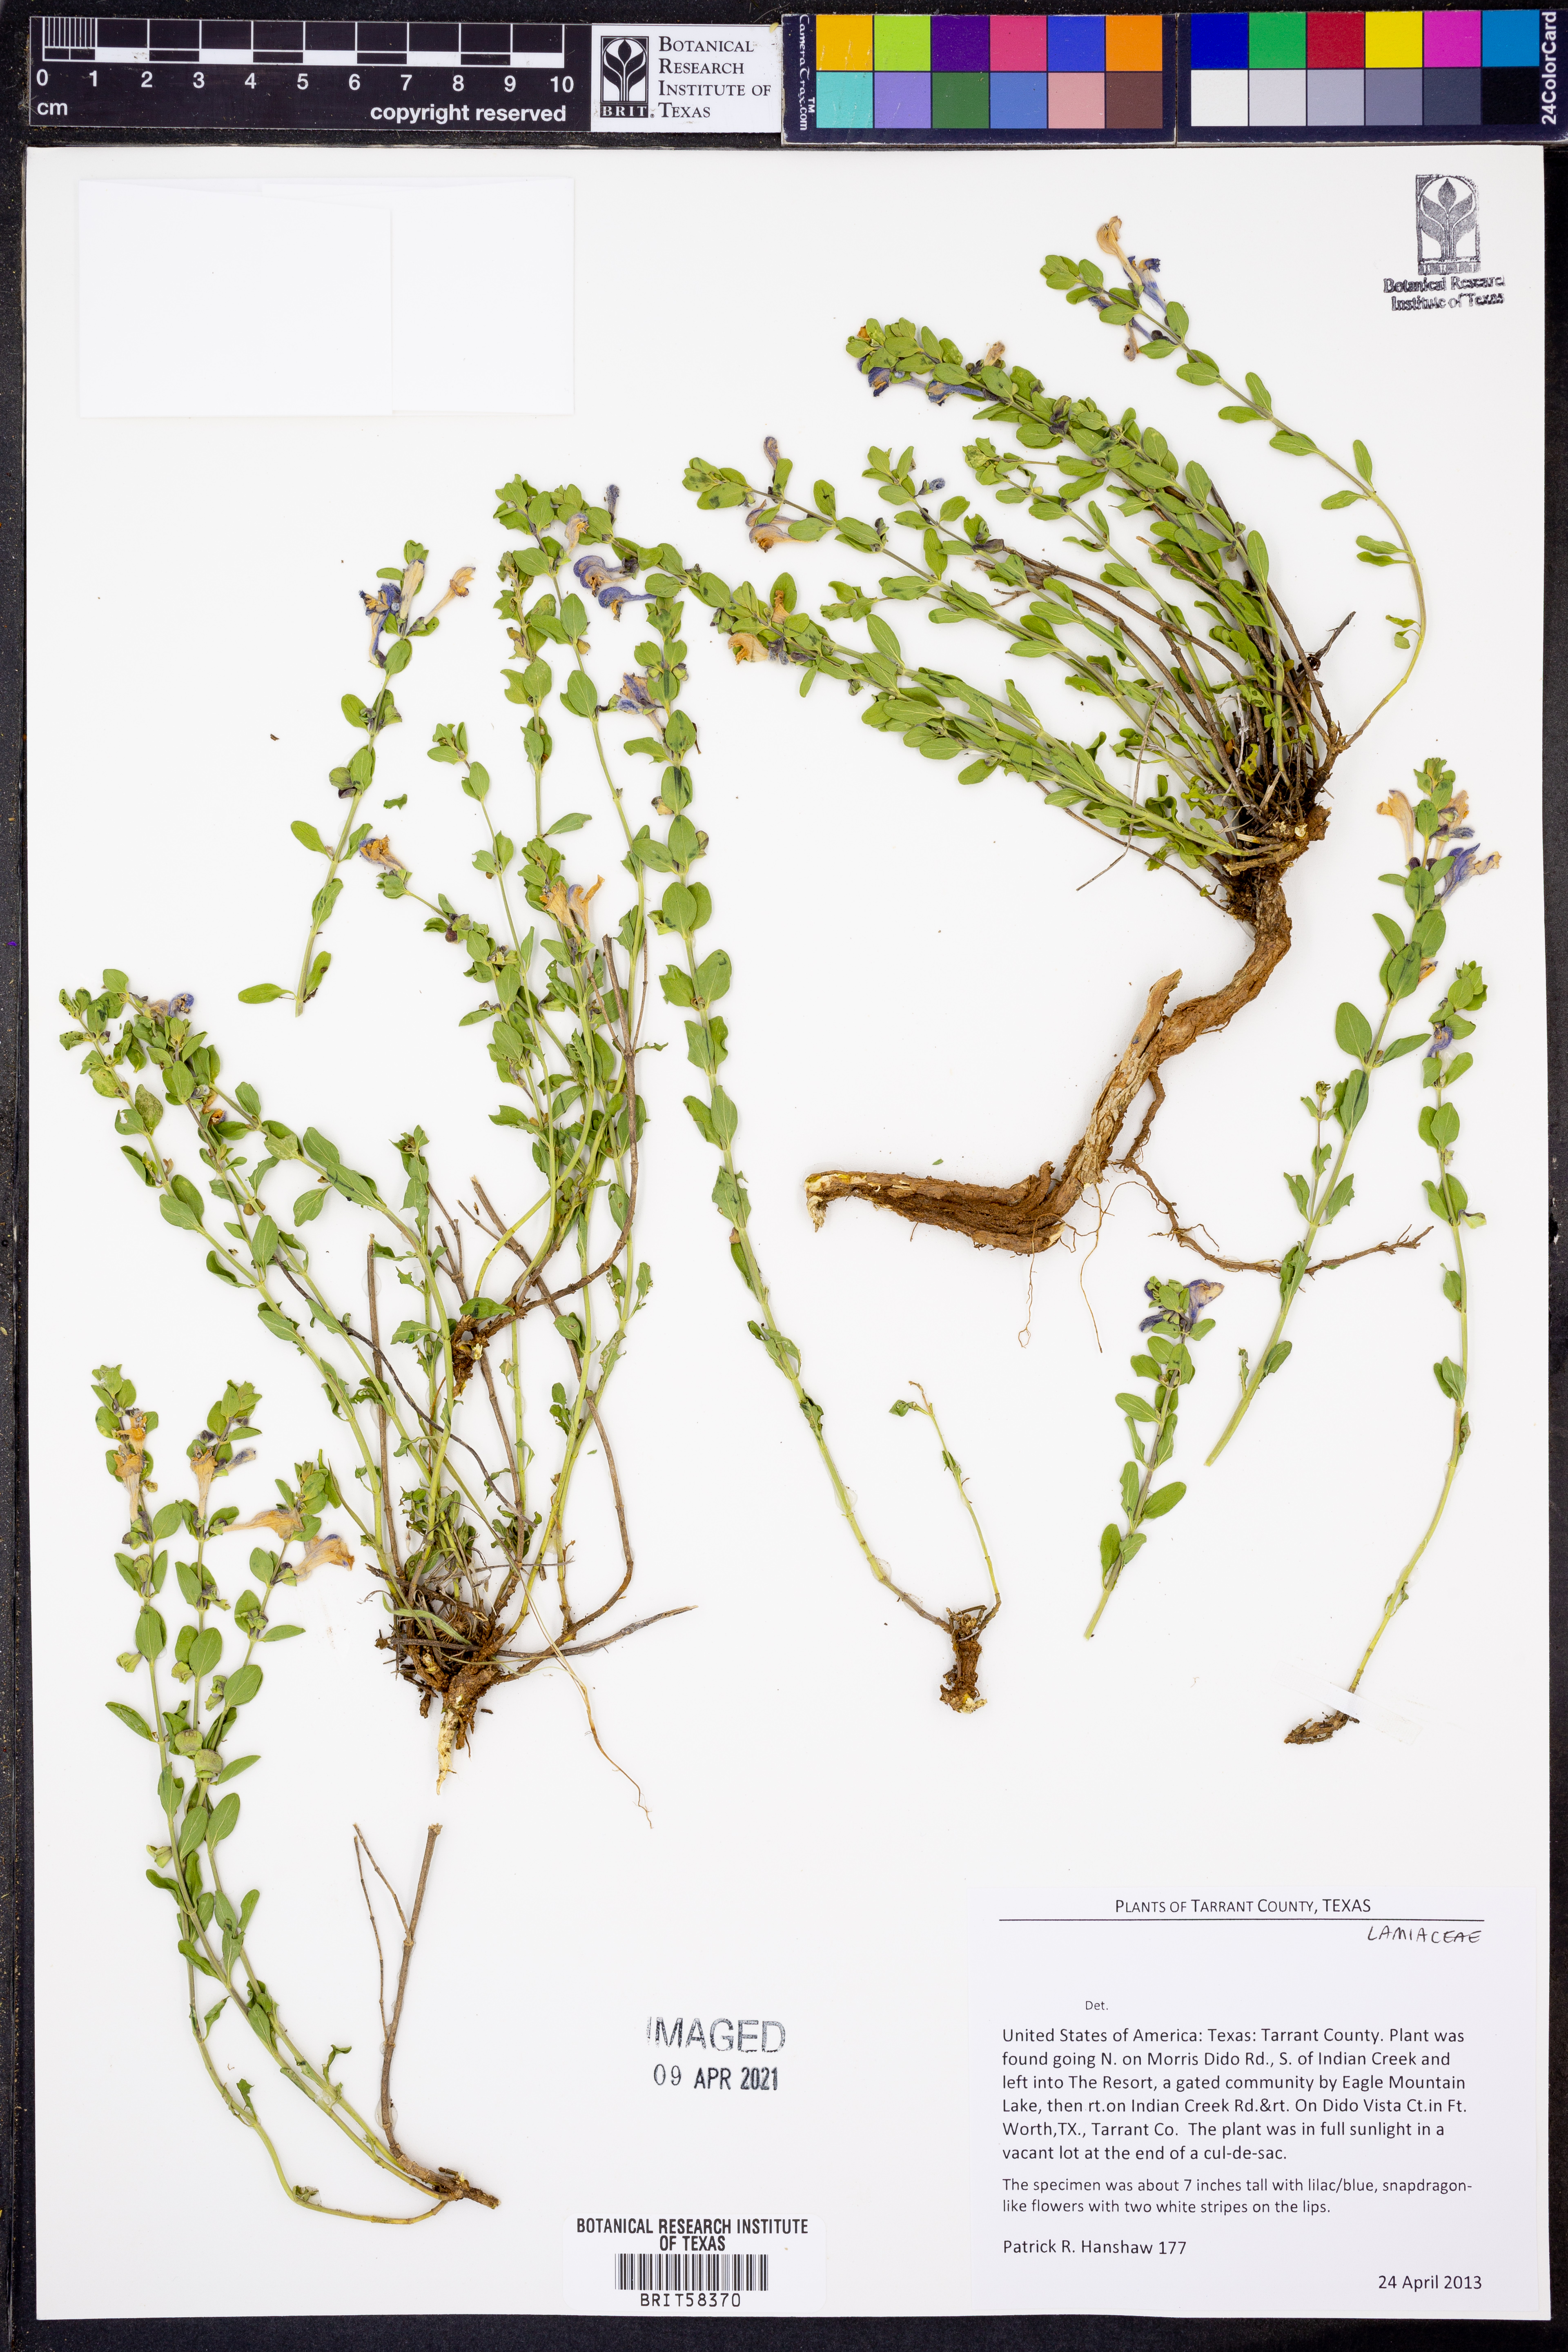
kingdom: Plantae
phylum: Tracheophyta
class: Magnoliopsida
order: Lamiales
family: Lamiaceae
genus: Scutellaria
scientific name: Scutellaria drummondii
